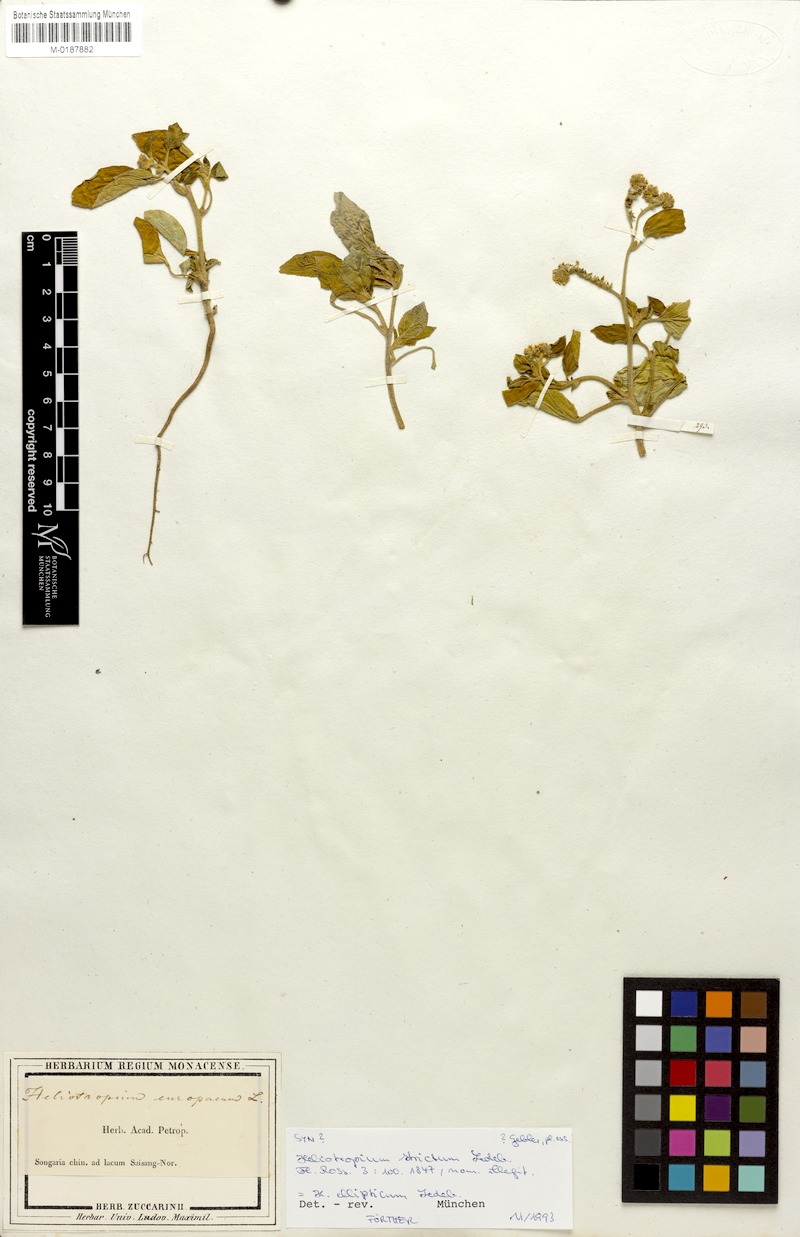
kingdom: Plantae
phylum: Tracheophyta
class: Magnoliopsida
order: Boraginales
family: Heliotropiaceae
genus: Heliotropium
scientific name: Heliotropium europaeum
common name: European heliotrope
